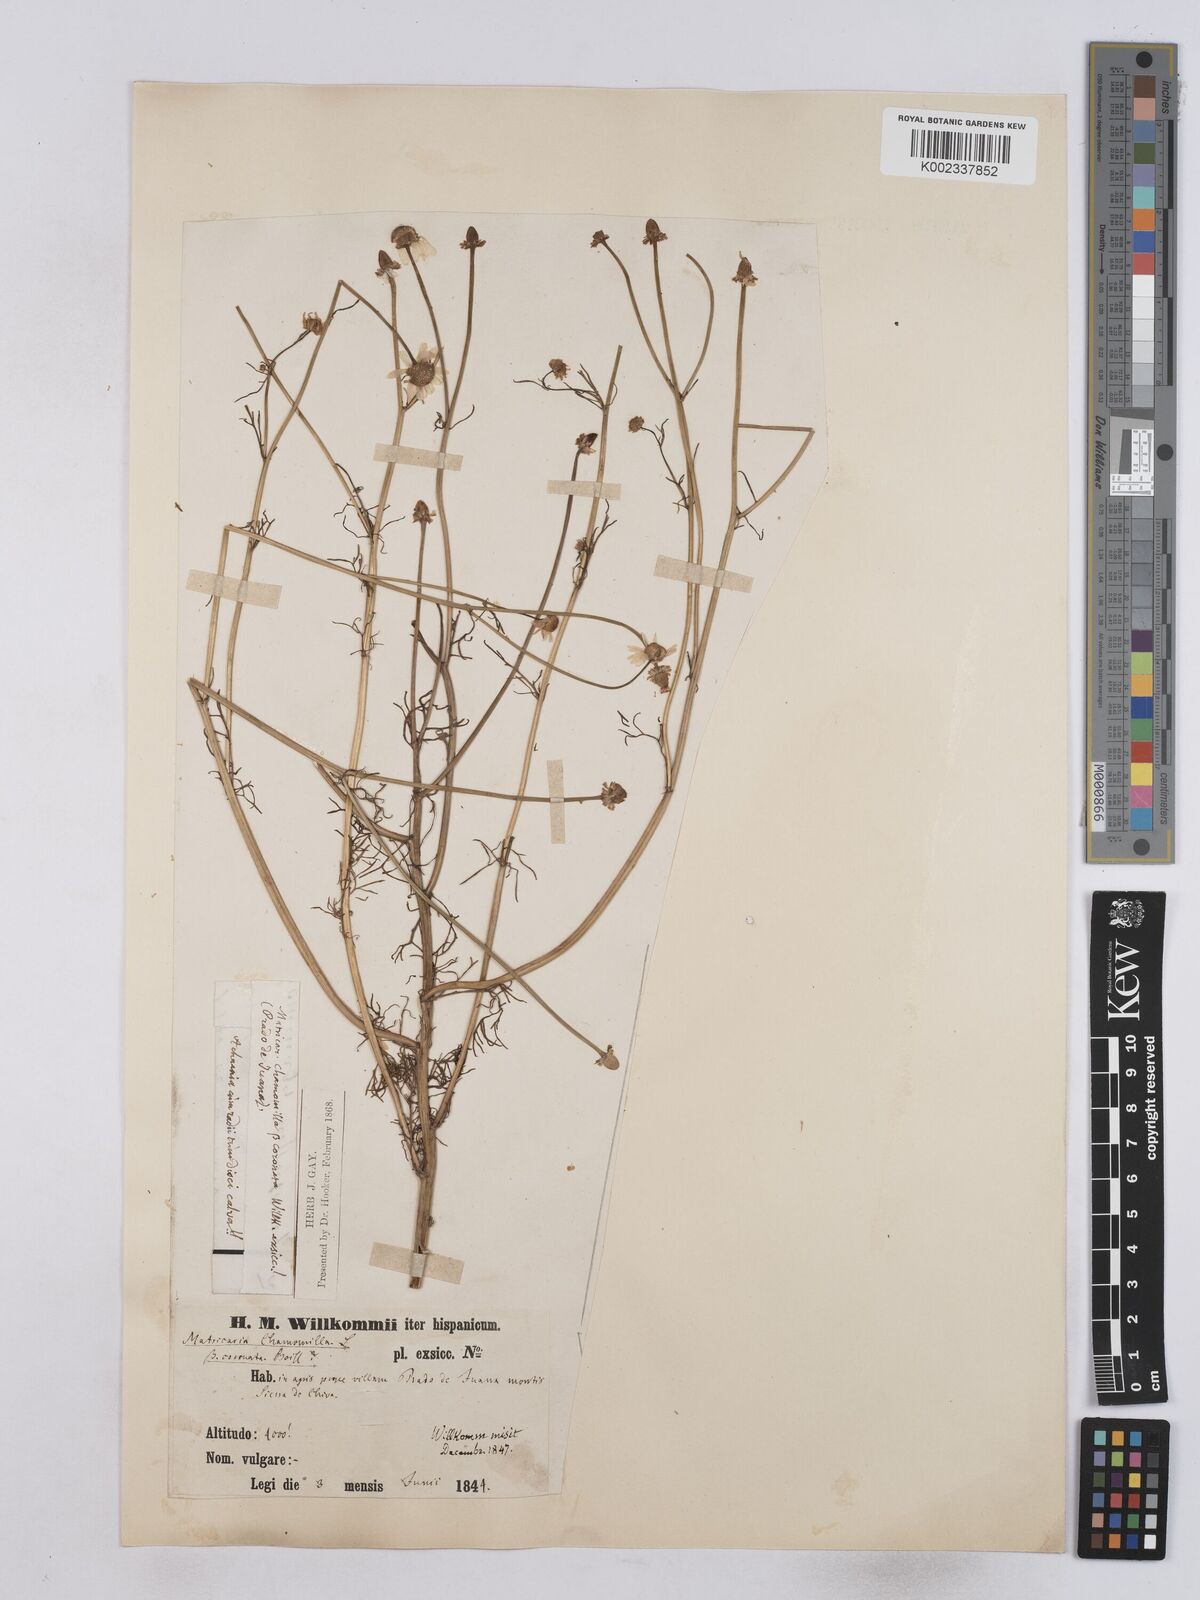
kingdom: Plantae
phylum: Tracheophyta
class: Magnoliopsida
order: Asterales
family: Asteraceae
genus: Matricaria
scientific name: Matricaria chamomilla
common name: Scented mayweed
